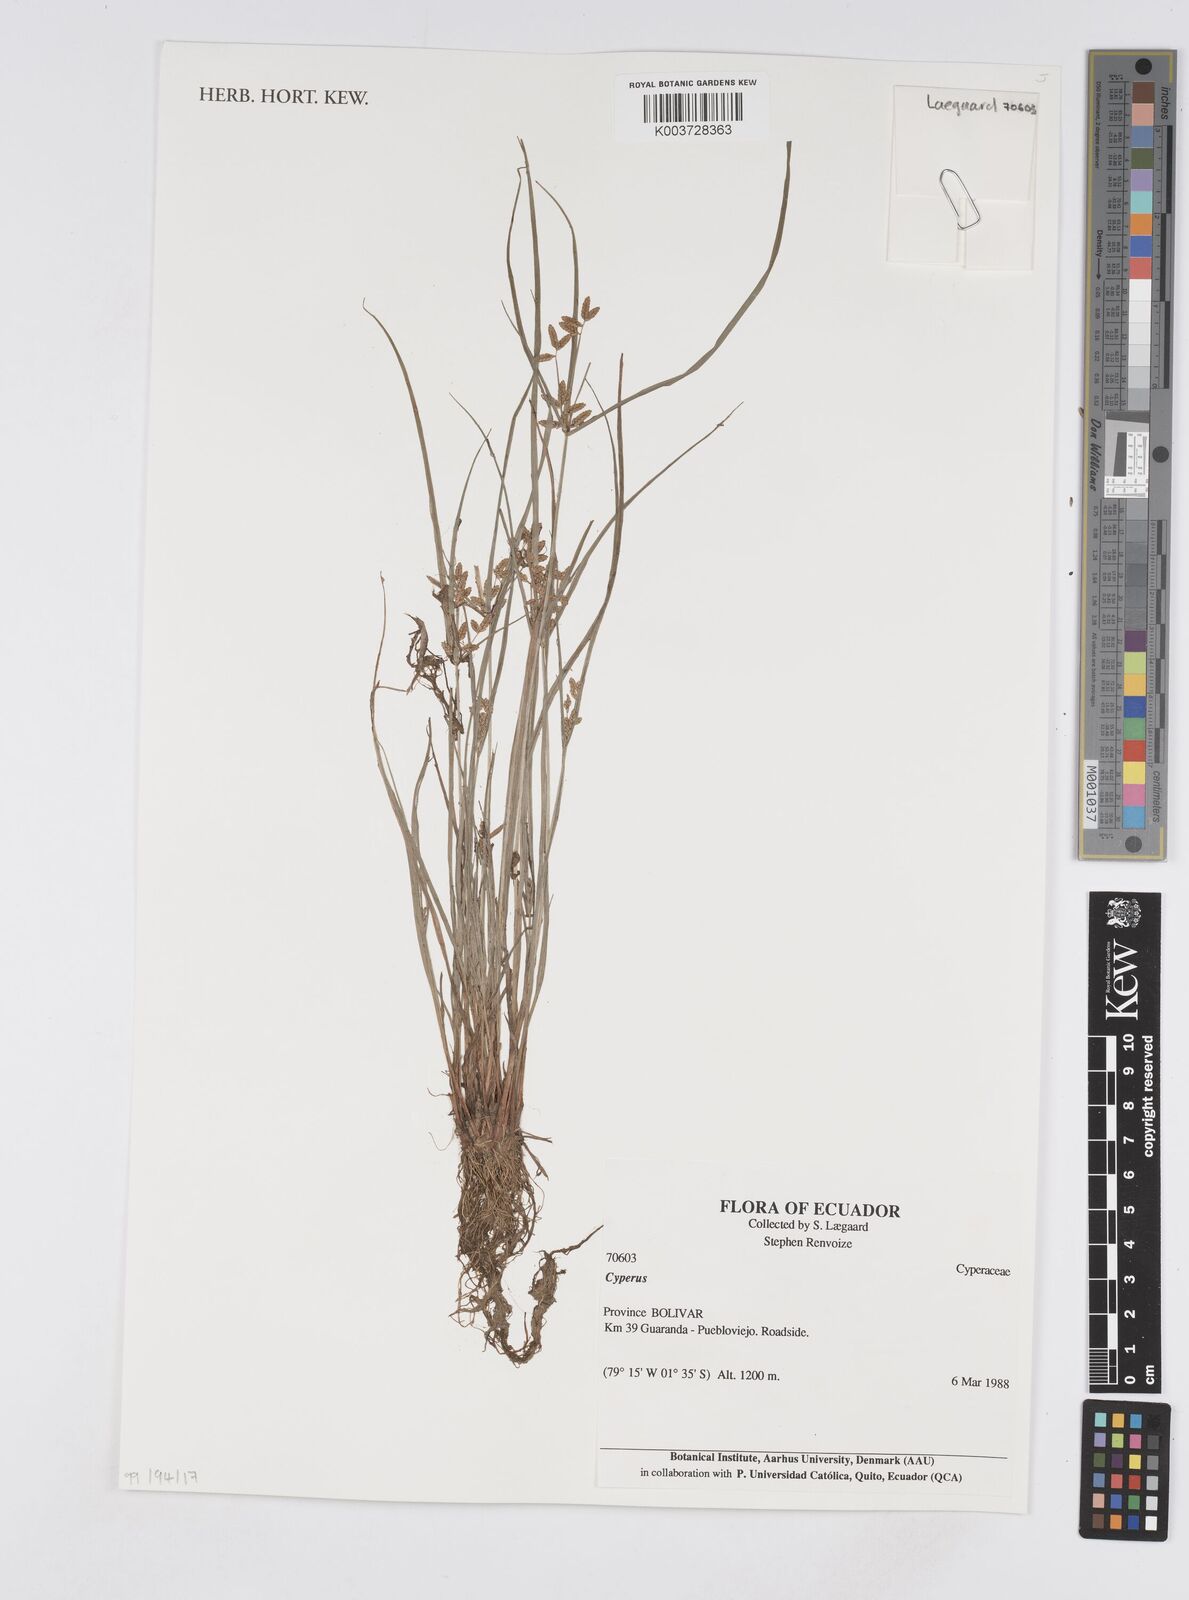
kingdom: Plantae
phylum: Tracheophyta
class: Liliopsida
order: Poales
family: Cyperaceae
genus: Cyperus
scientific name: Cyperus
